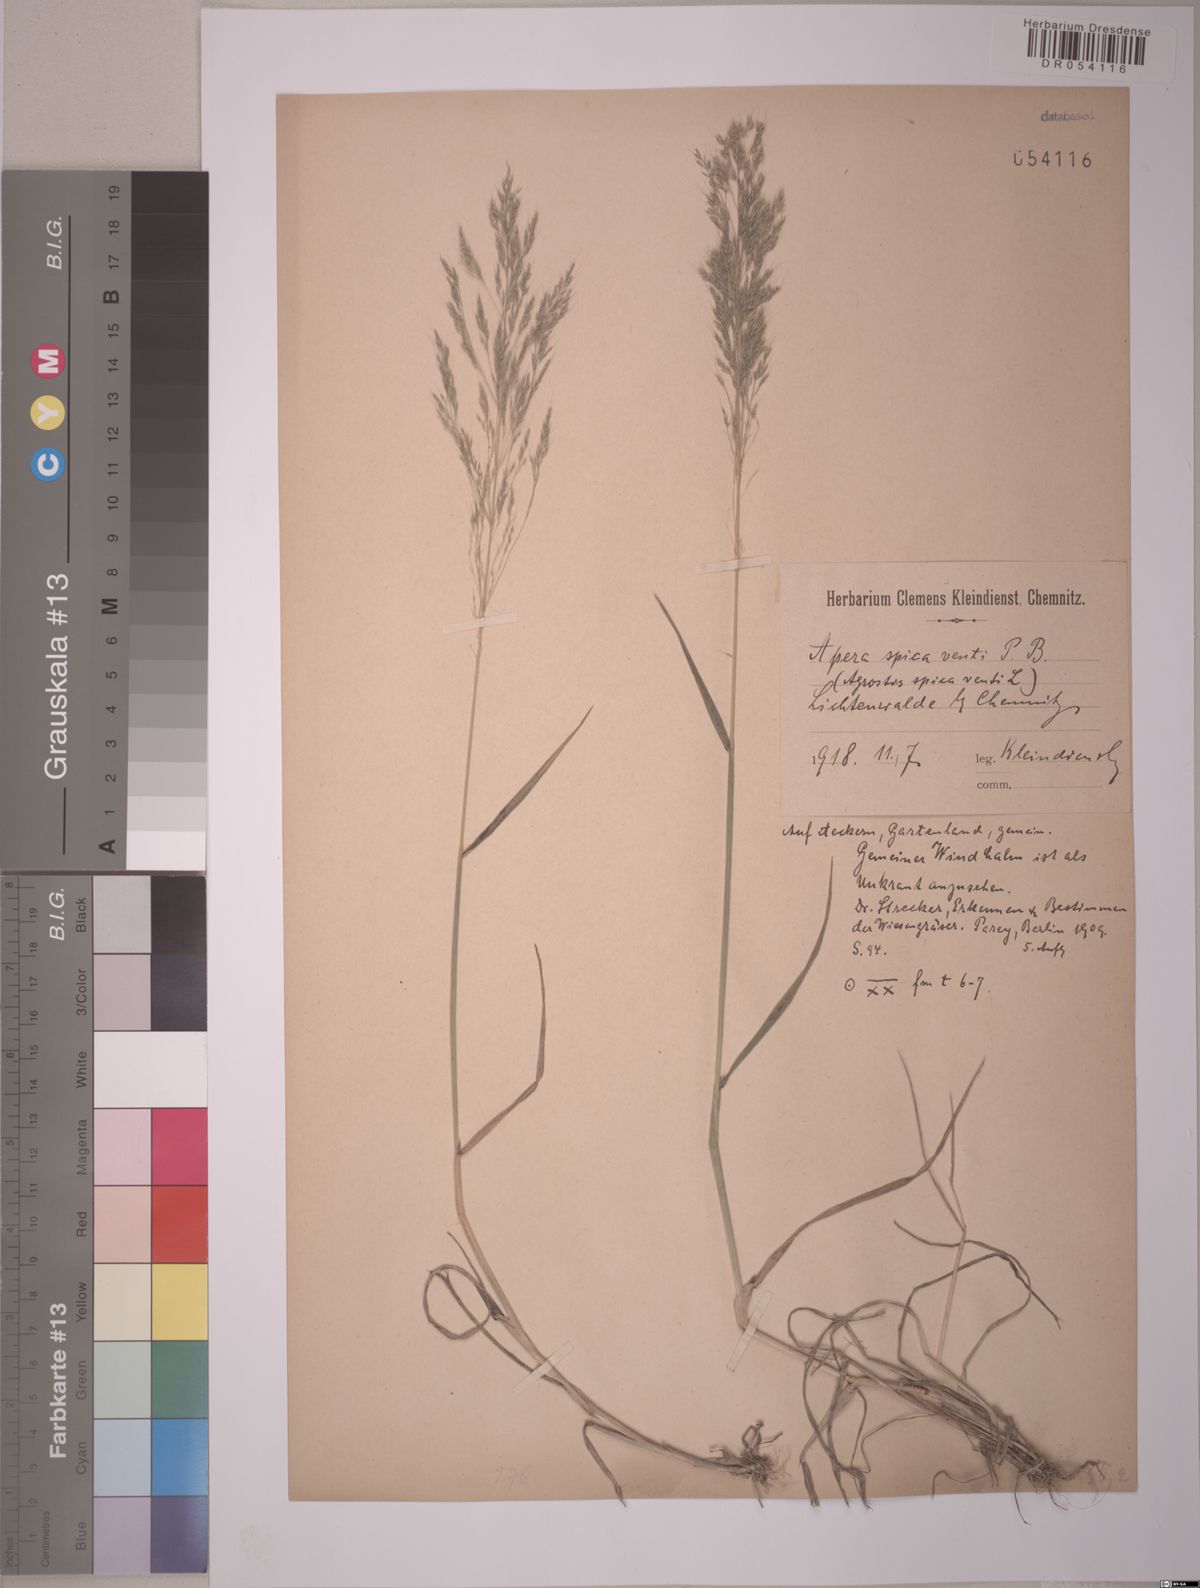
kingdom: Plantae
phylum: Tracheophyta
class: Liliopsida
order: Poales
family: Poaceae
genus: Apera
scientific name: Apera spica-venti
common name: Loose silky-bent
